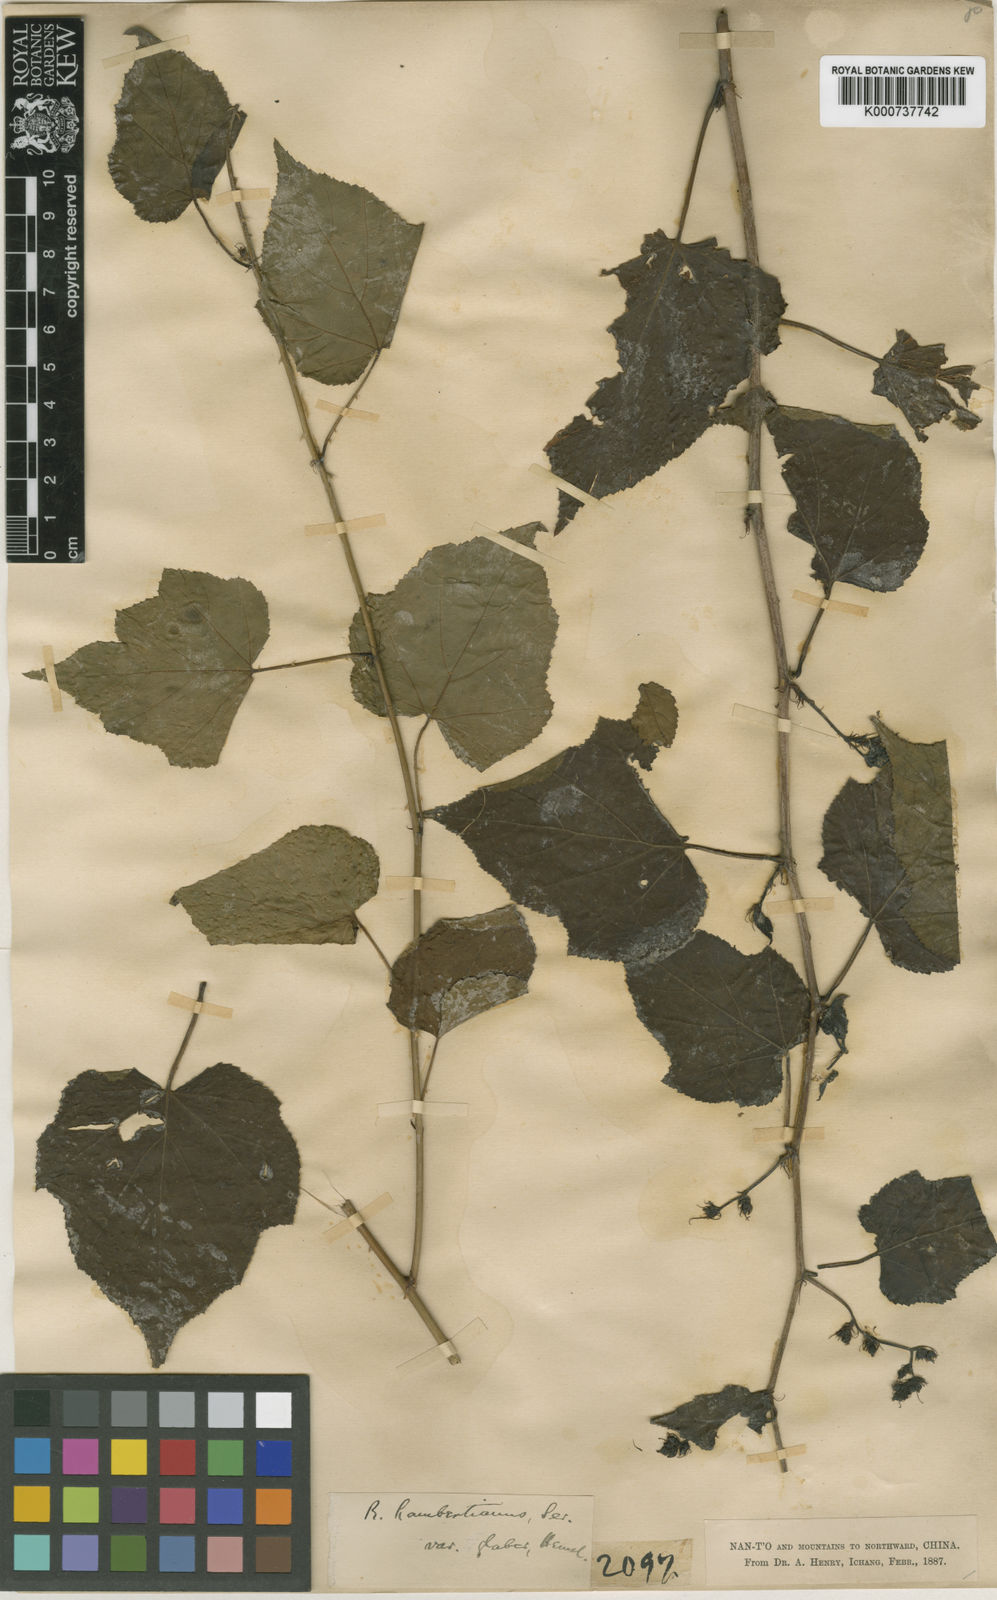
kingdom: Plantae
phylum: Tracheophyta
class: Magnoliopsida
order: Rosales
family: Rosaceae
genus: Rubus
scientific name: Rubus lambertianus
